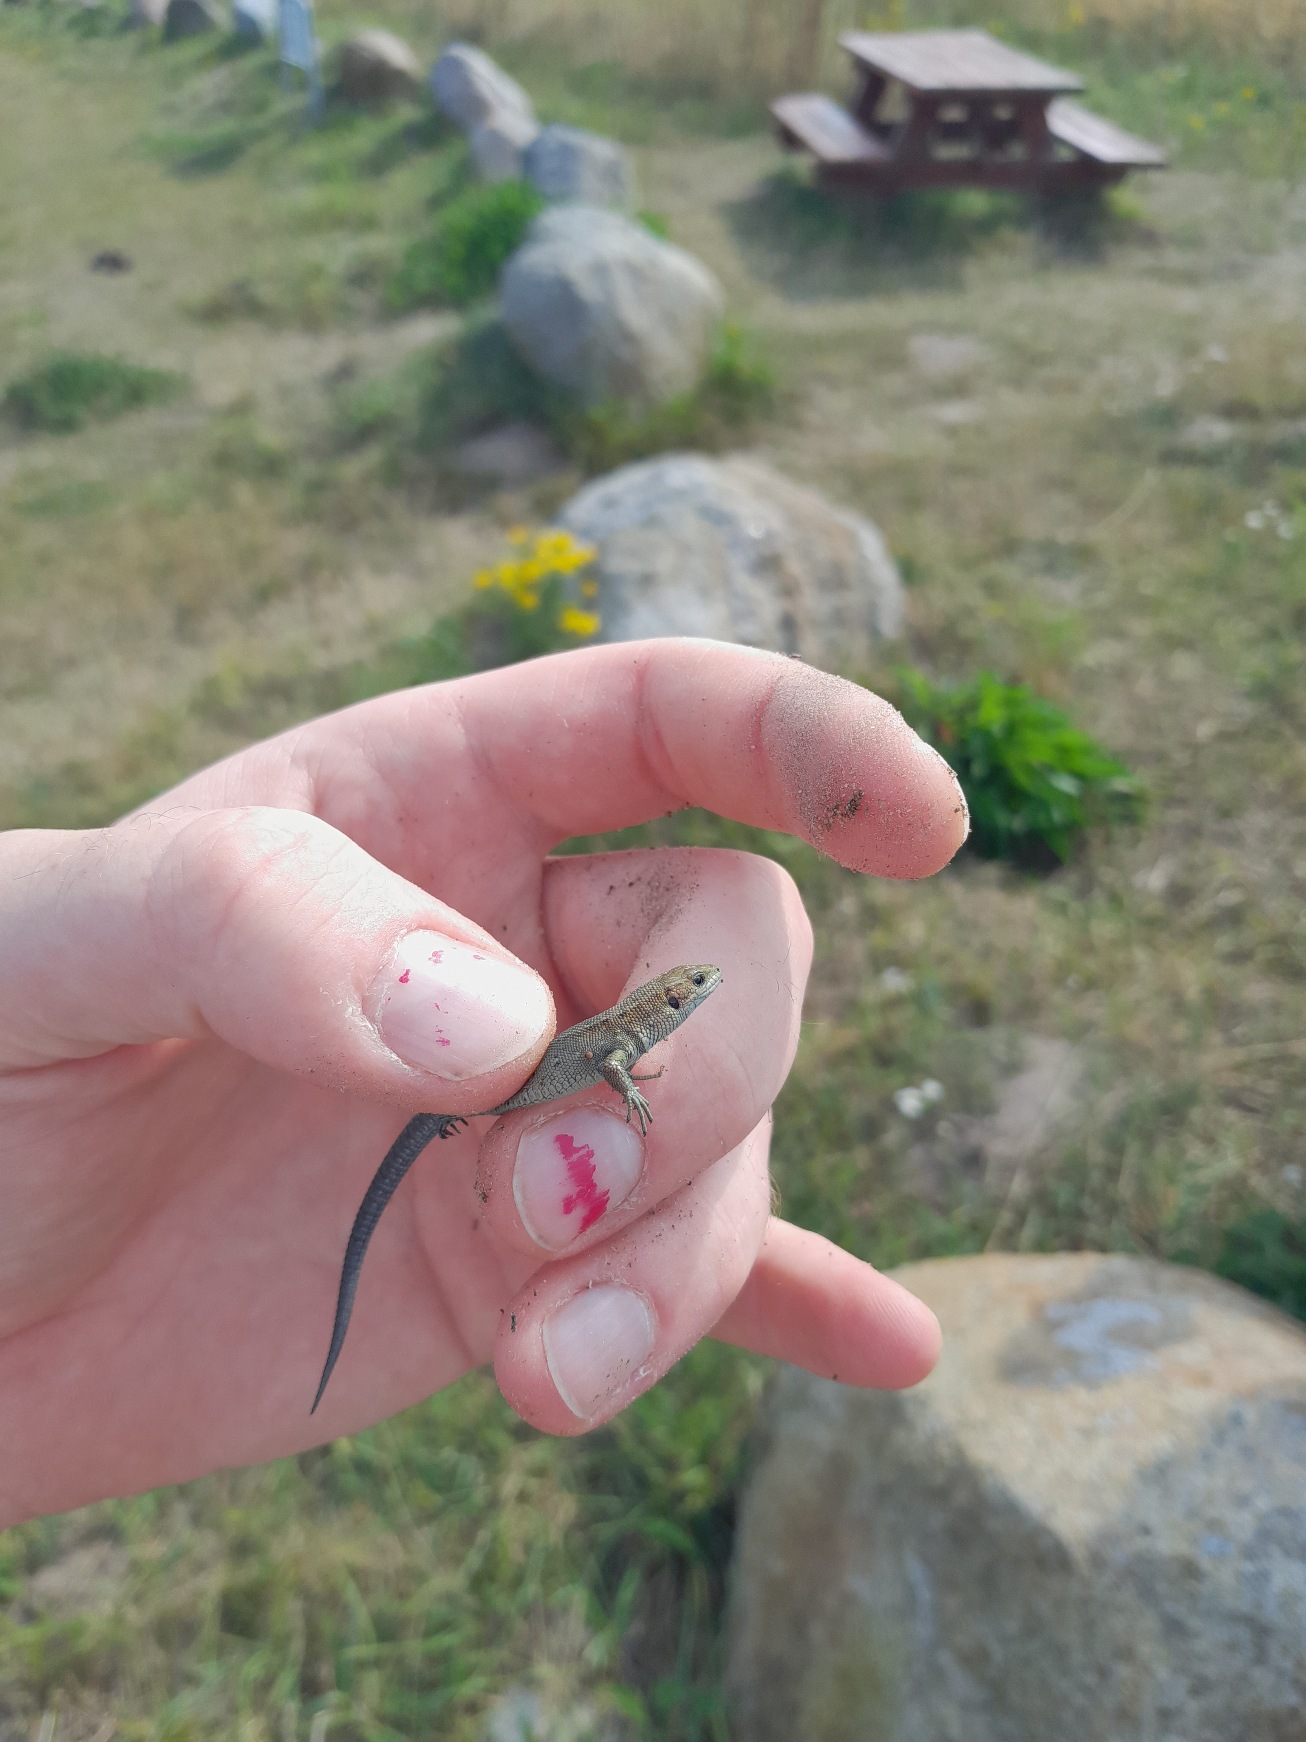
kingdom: Animalia
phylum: Chordata
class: Squamata
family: Lacertidae
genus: Zootoca
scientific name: Zootoca vivipara
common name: Skovfirben
